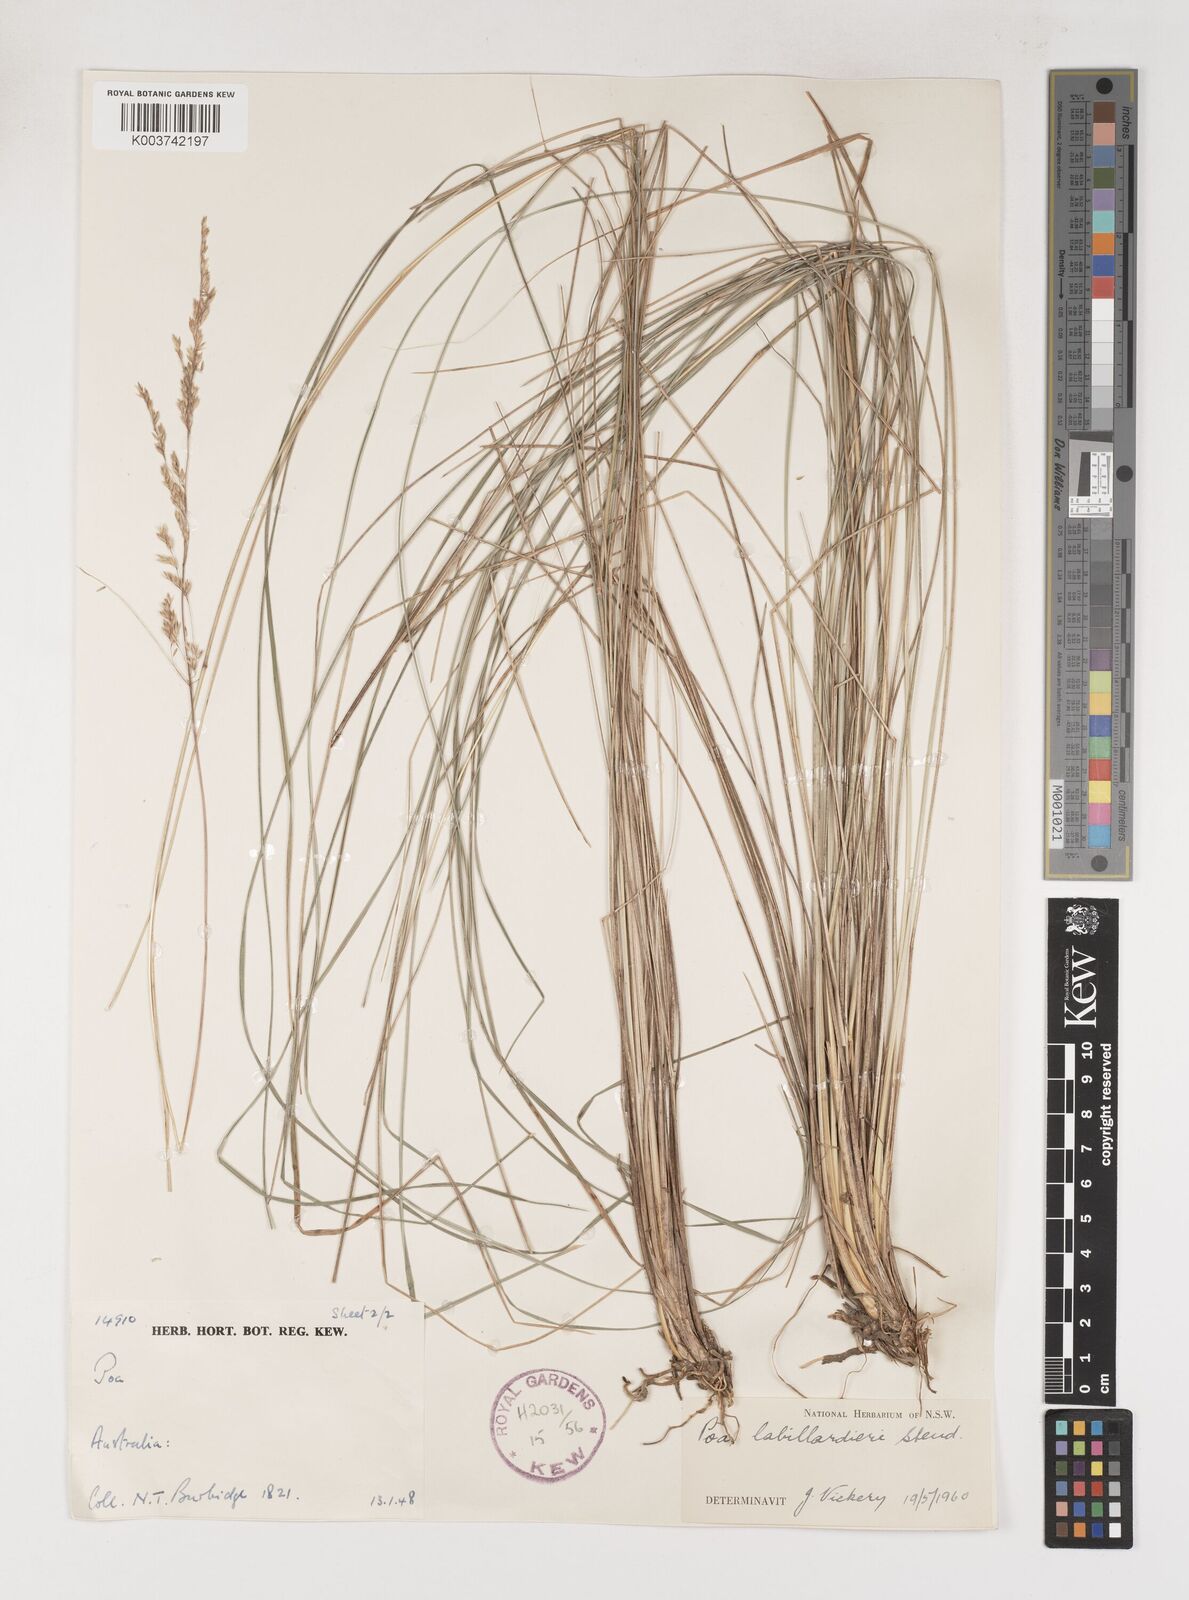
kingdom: Plantae
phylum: Tracheophyta
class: Liliopsida
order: Poales
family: Poaceae
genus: Poa
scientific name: Poa labillardierei
